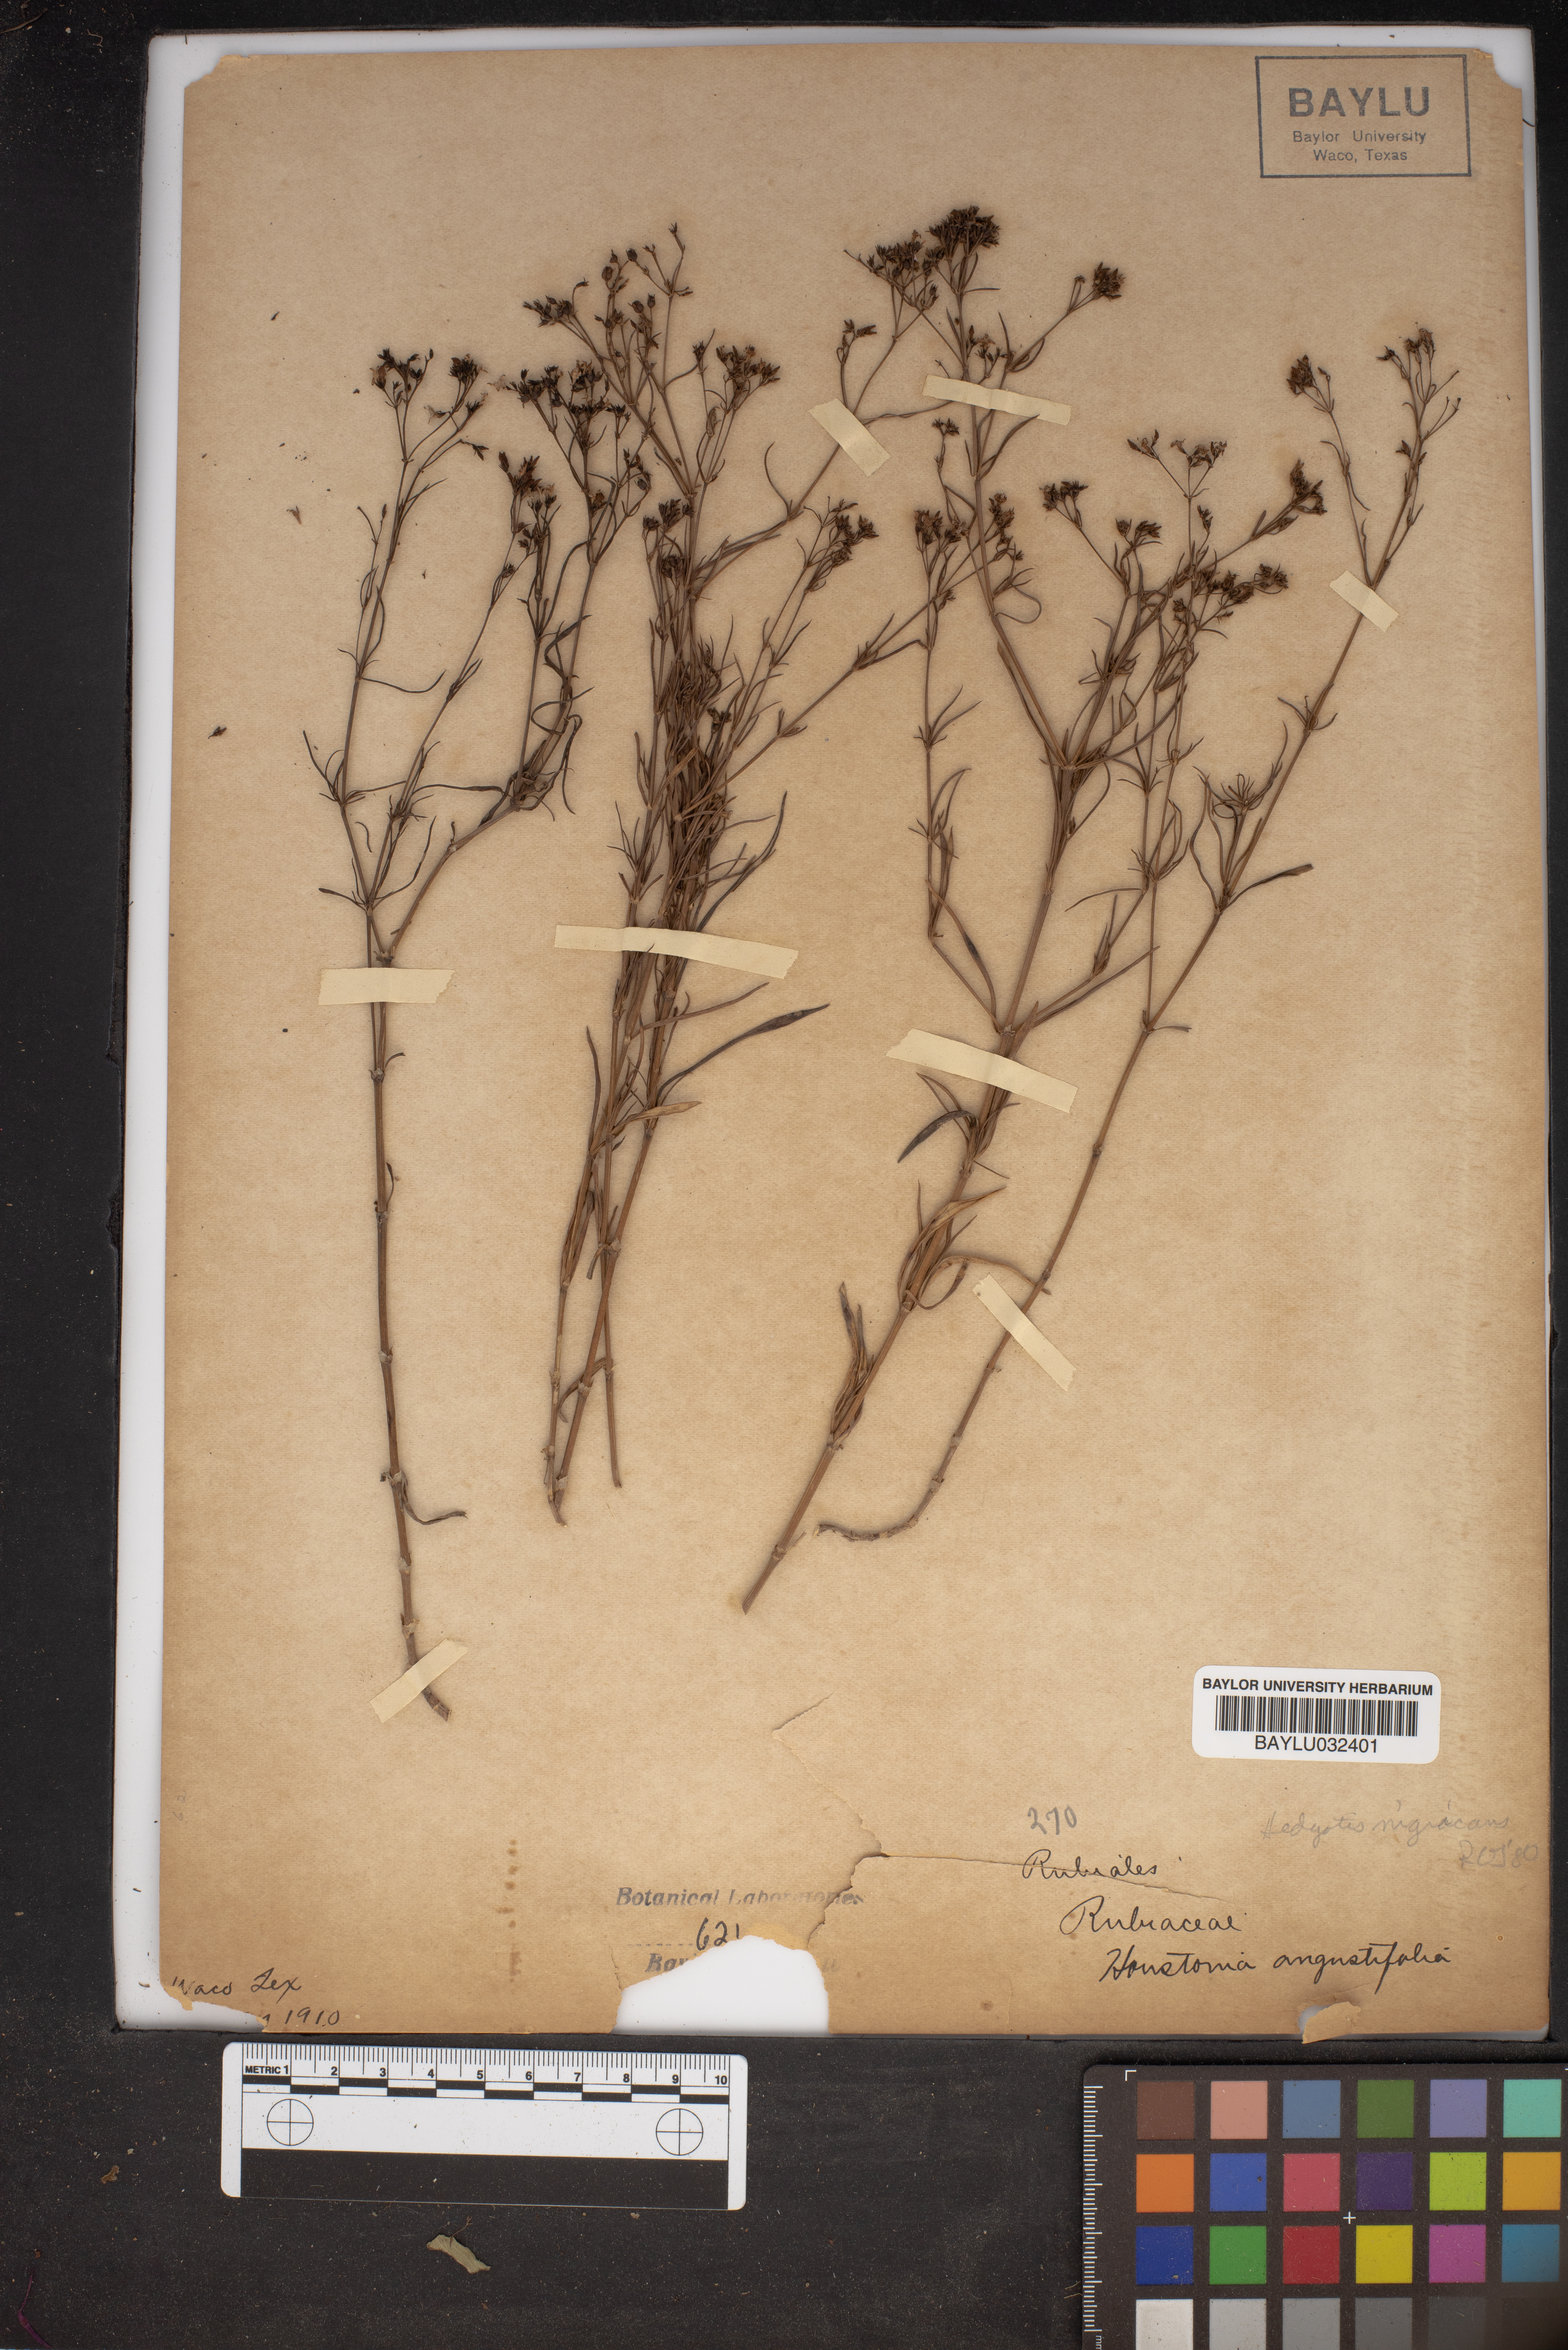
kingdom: Plantae
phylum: Tracheophyta
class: Magnoliopsida
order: Gentianales
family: Rubiaceae
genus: Stenaria
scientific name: Stenaria nigricans
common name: Diamondflowers
